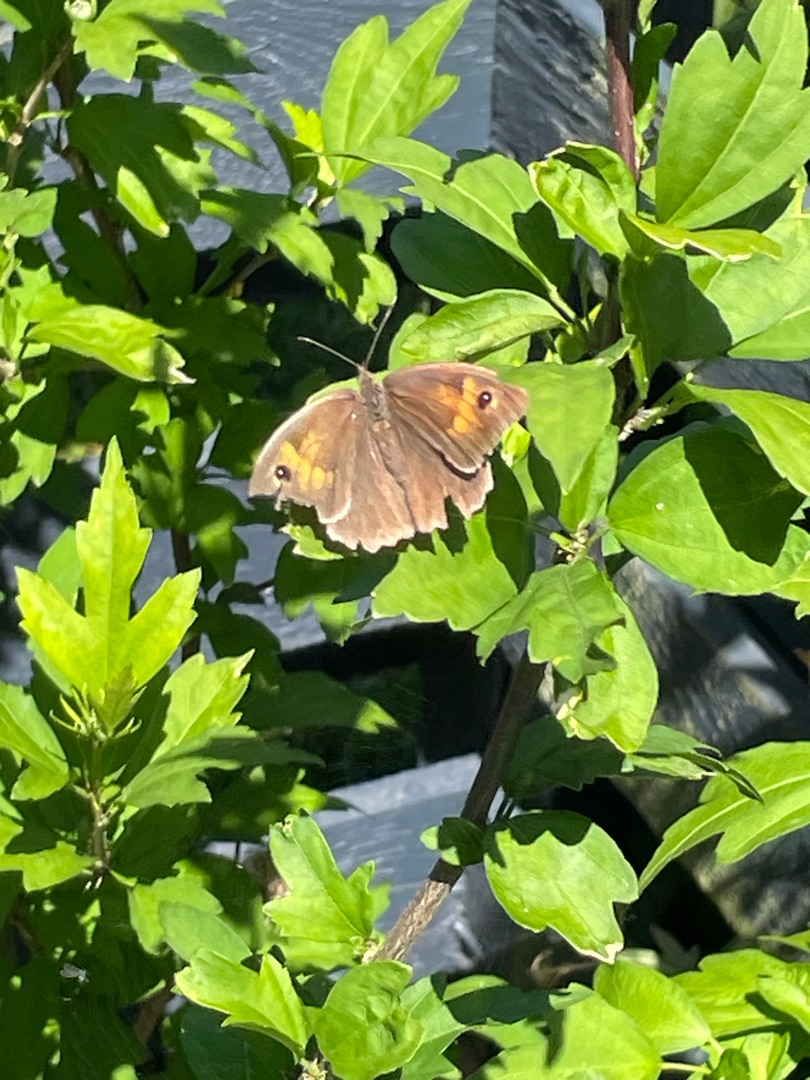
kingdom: Animalia
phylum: Arthropoda
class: Insecta
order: Lepidoptera
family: Nymphalidae
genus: Maniola
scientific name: Maniola jurtina
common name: Græsrandøje
